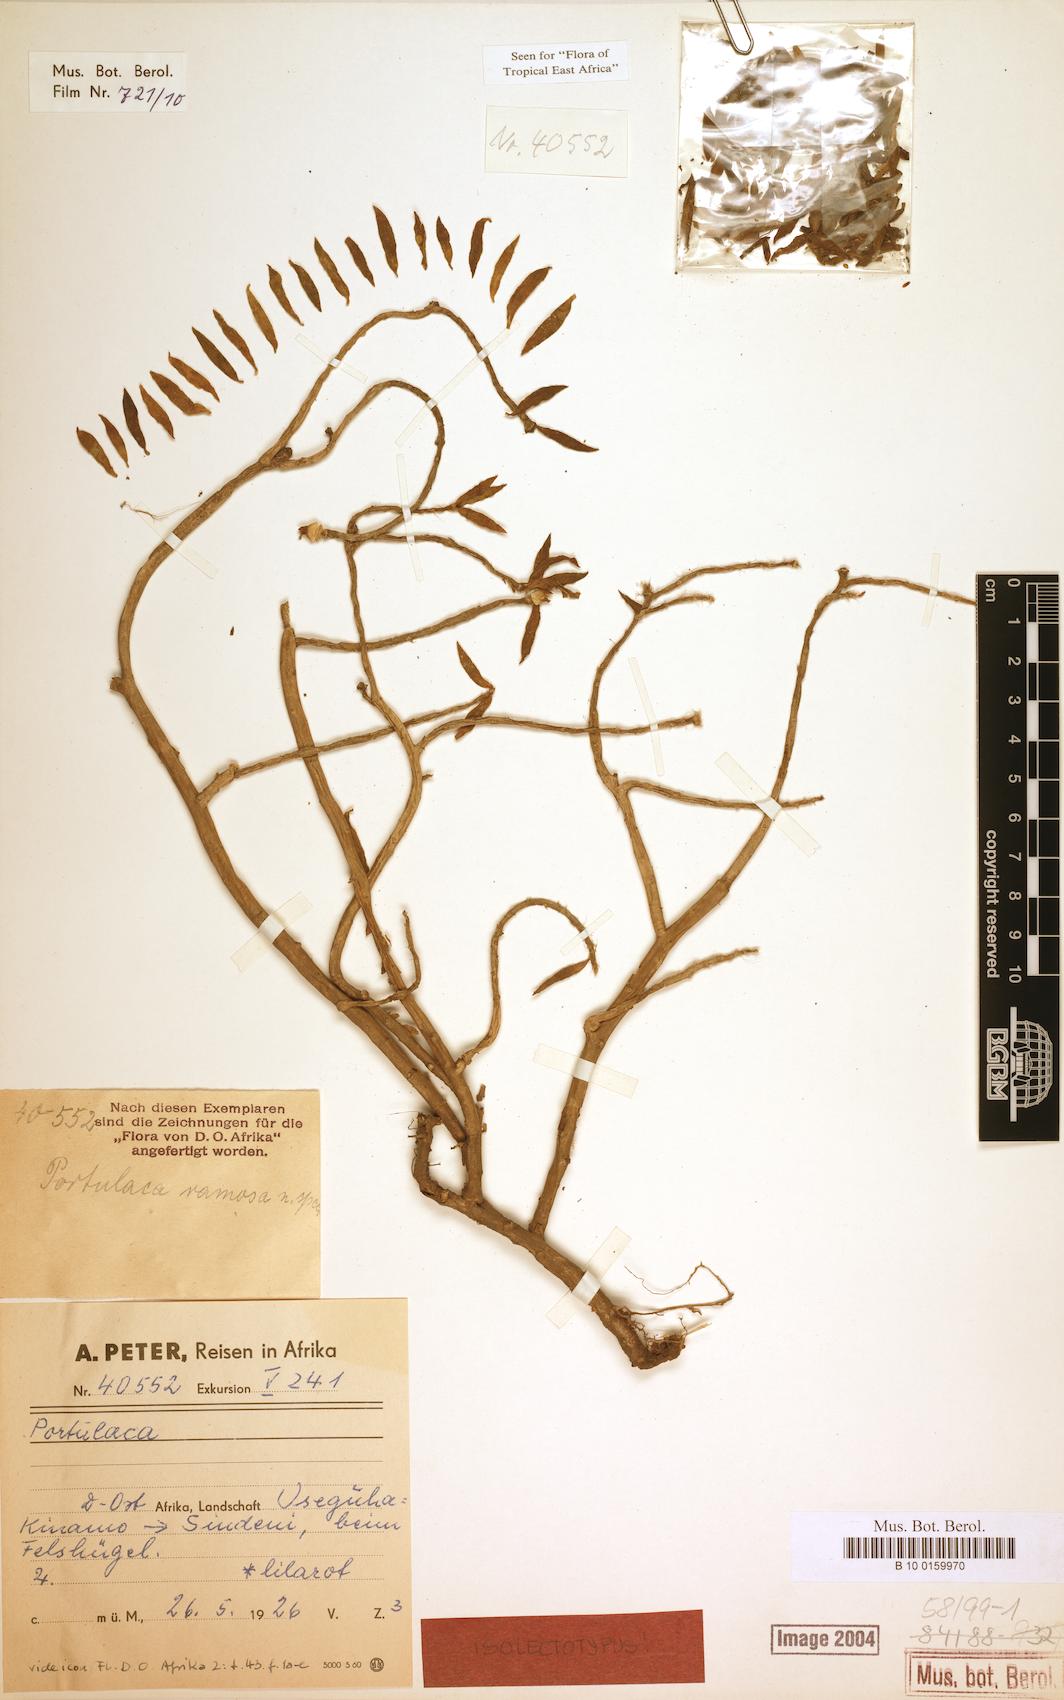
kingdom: Plantae
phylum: Tracheophyta
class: Magnoliopsida
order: Caryophyllales
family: Portulacaceae
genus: Portulaca
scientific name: Portulaca ramosa
